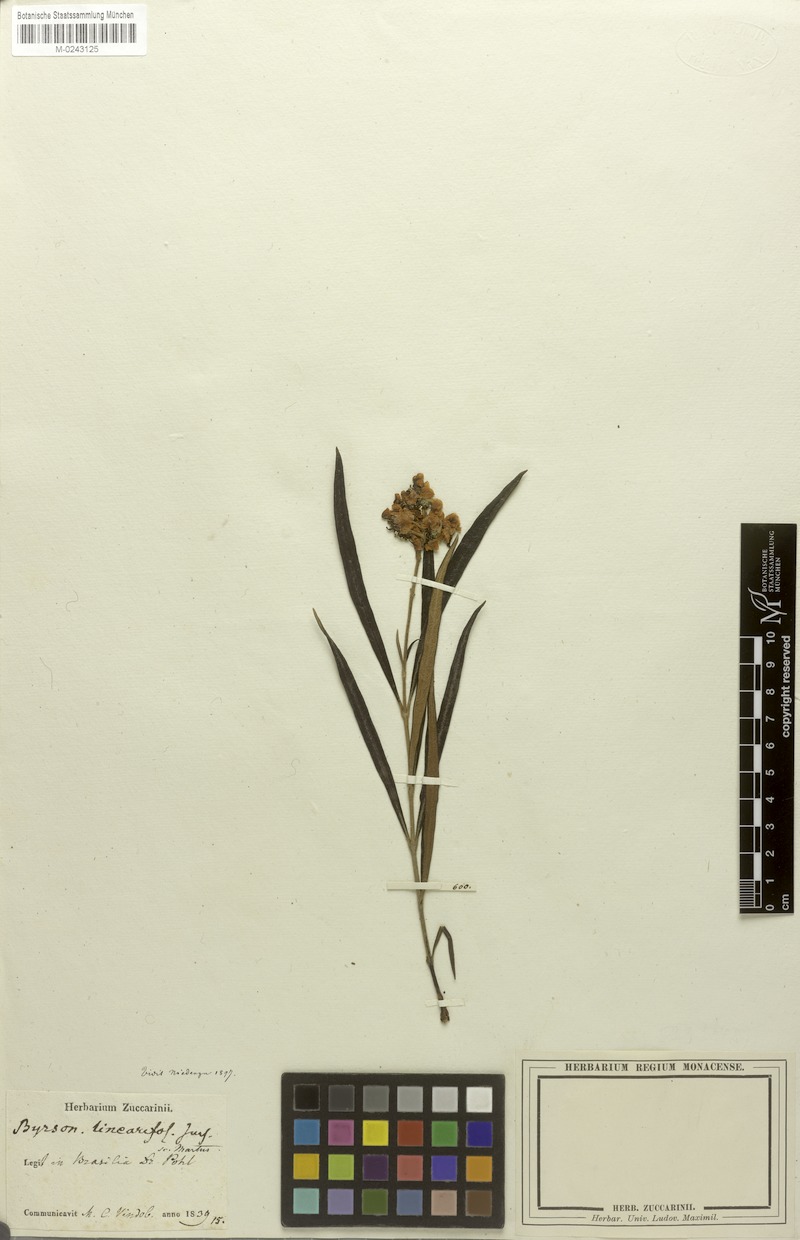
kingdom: Plantae
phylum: Tracheophyta
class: Magnoliopsida
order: Malpighiales
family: Malpighiaceae
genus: Byrsonima
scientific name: Byrsonima linearifolia
